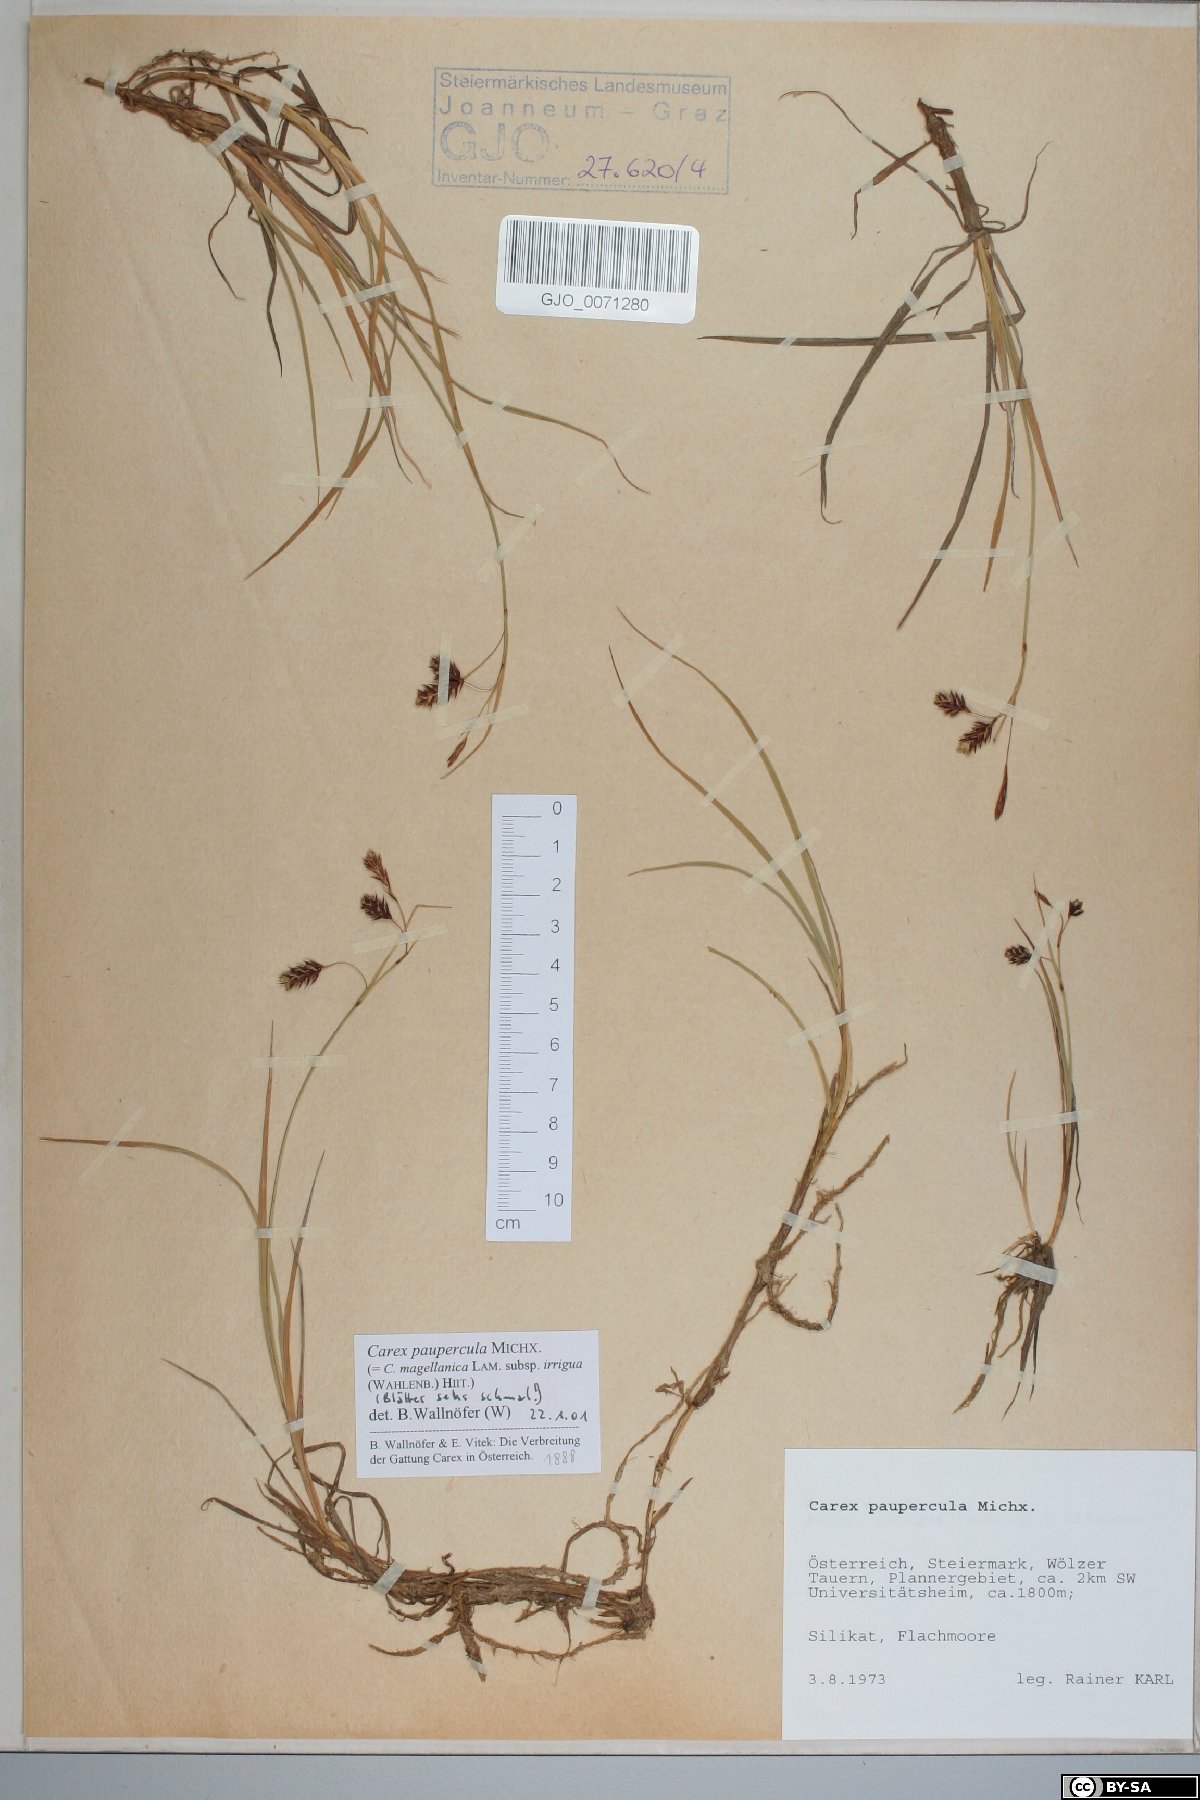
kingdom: Plantae
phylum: Tracheophyta
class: Liliopsida
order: Poales
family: Cyperaceae
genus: Carex
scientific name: Carex magellanica
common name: Bog sedge
